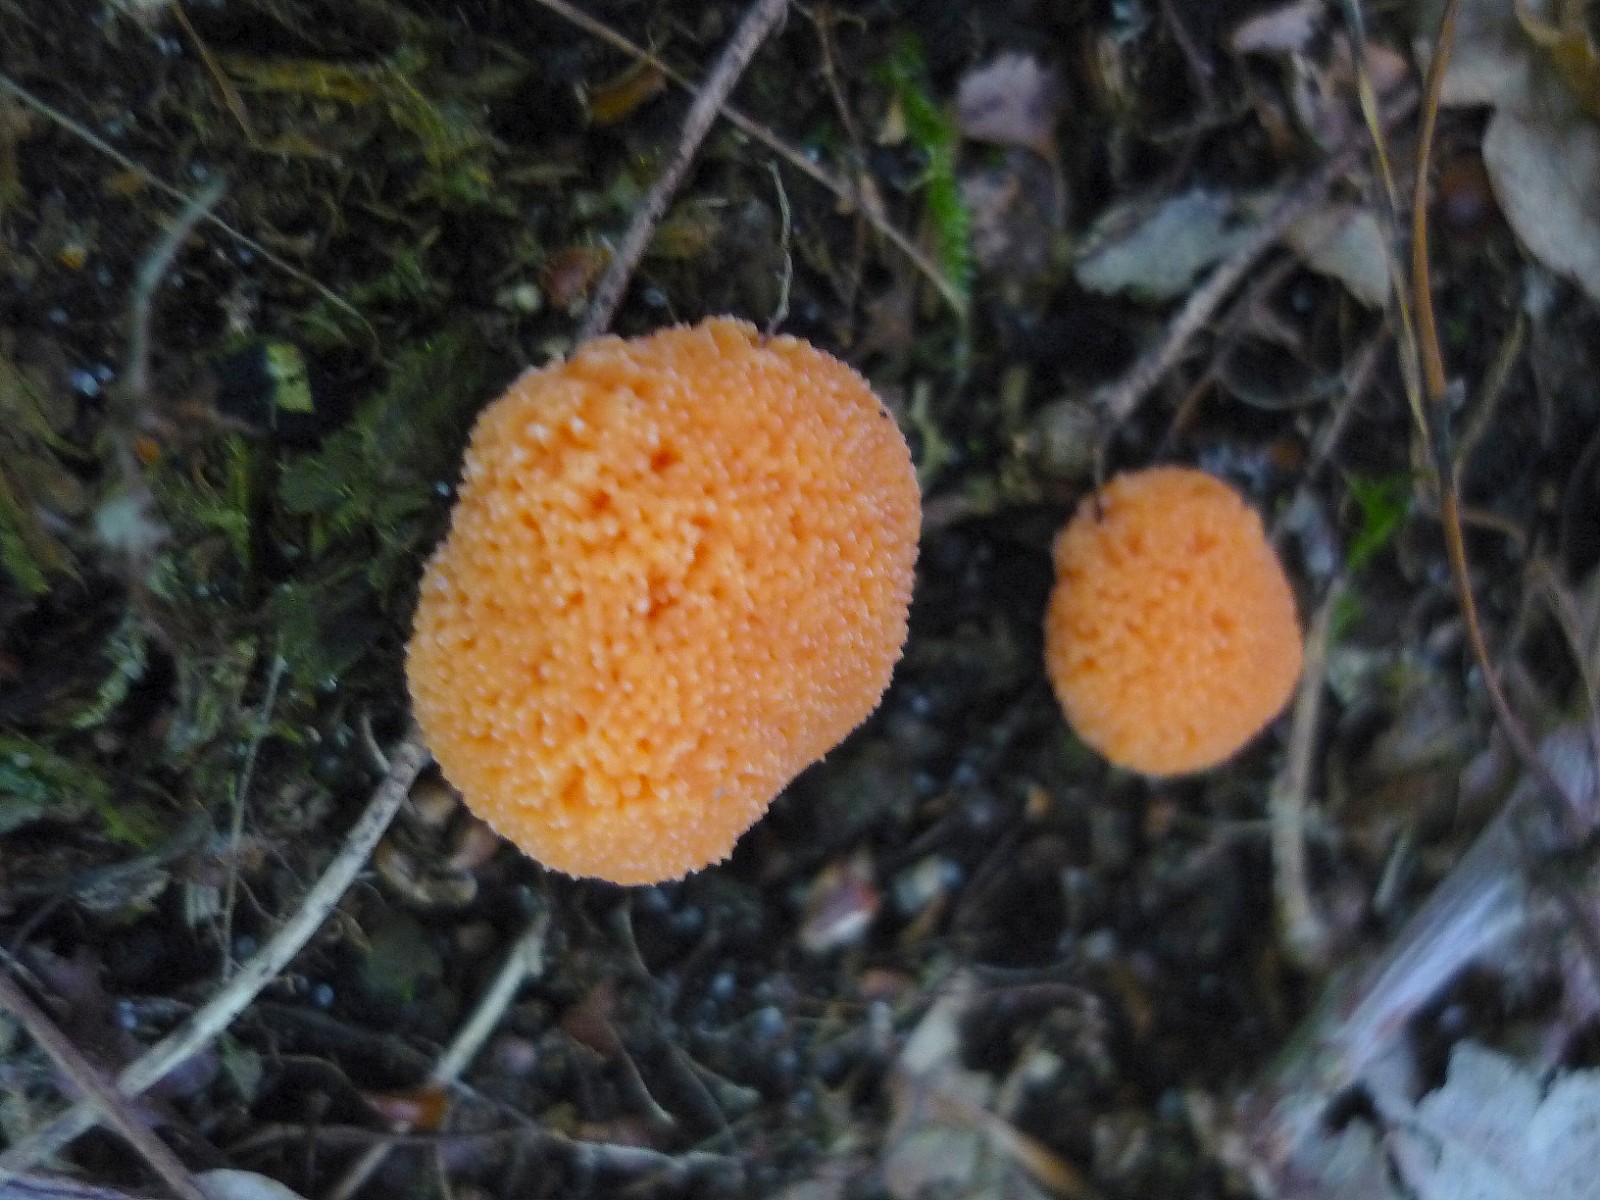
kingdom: Protozoa
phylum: Mycetozoa
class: Myxomycetes
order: Cribrariales
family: Tubiferaceae
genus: Tubifera
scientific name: Tubifera ferruginosa
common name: kanel-støvrør
